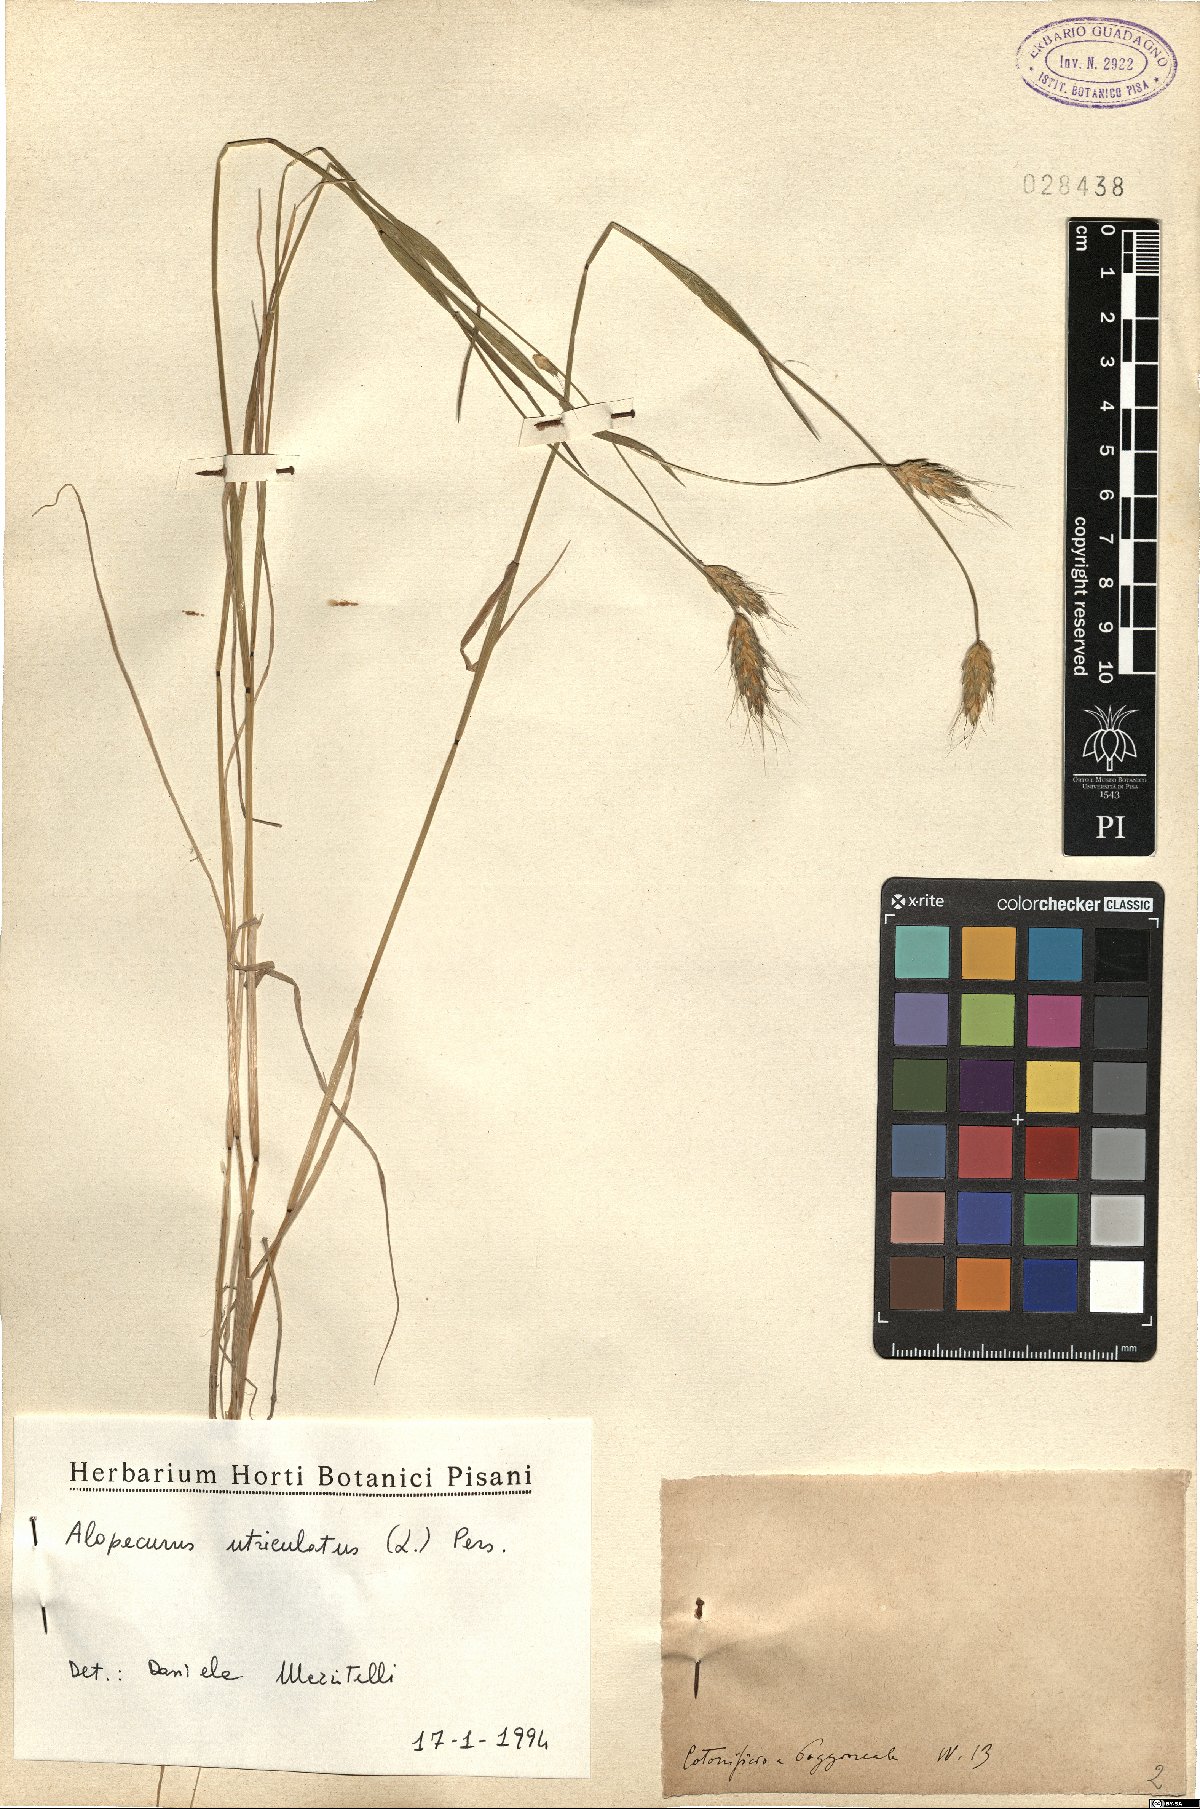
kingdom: Plantae
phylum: Tracheophyta
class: Liliopsida
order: Poales
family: Poaceae
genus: Alopecurus
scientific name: Alopecurus rendlei
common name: Rendle's meadow foxtail
